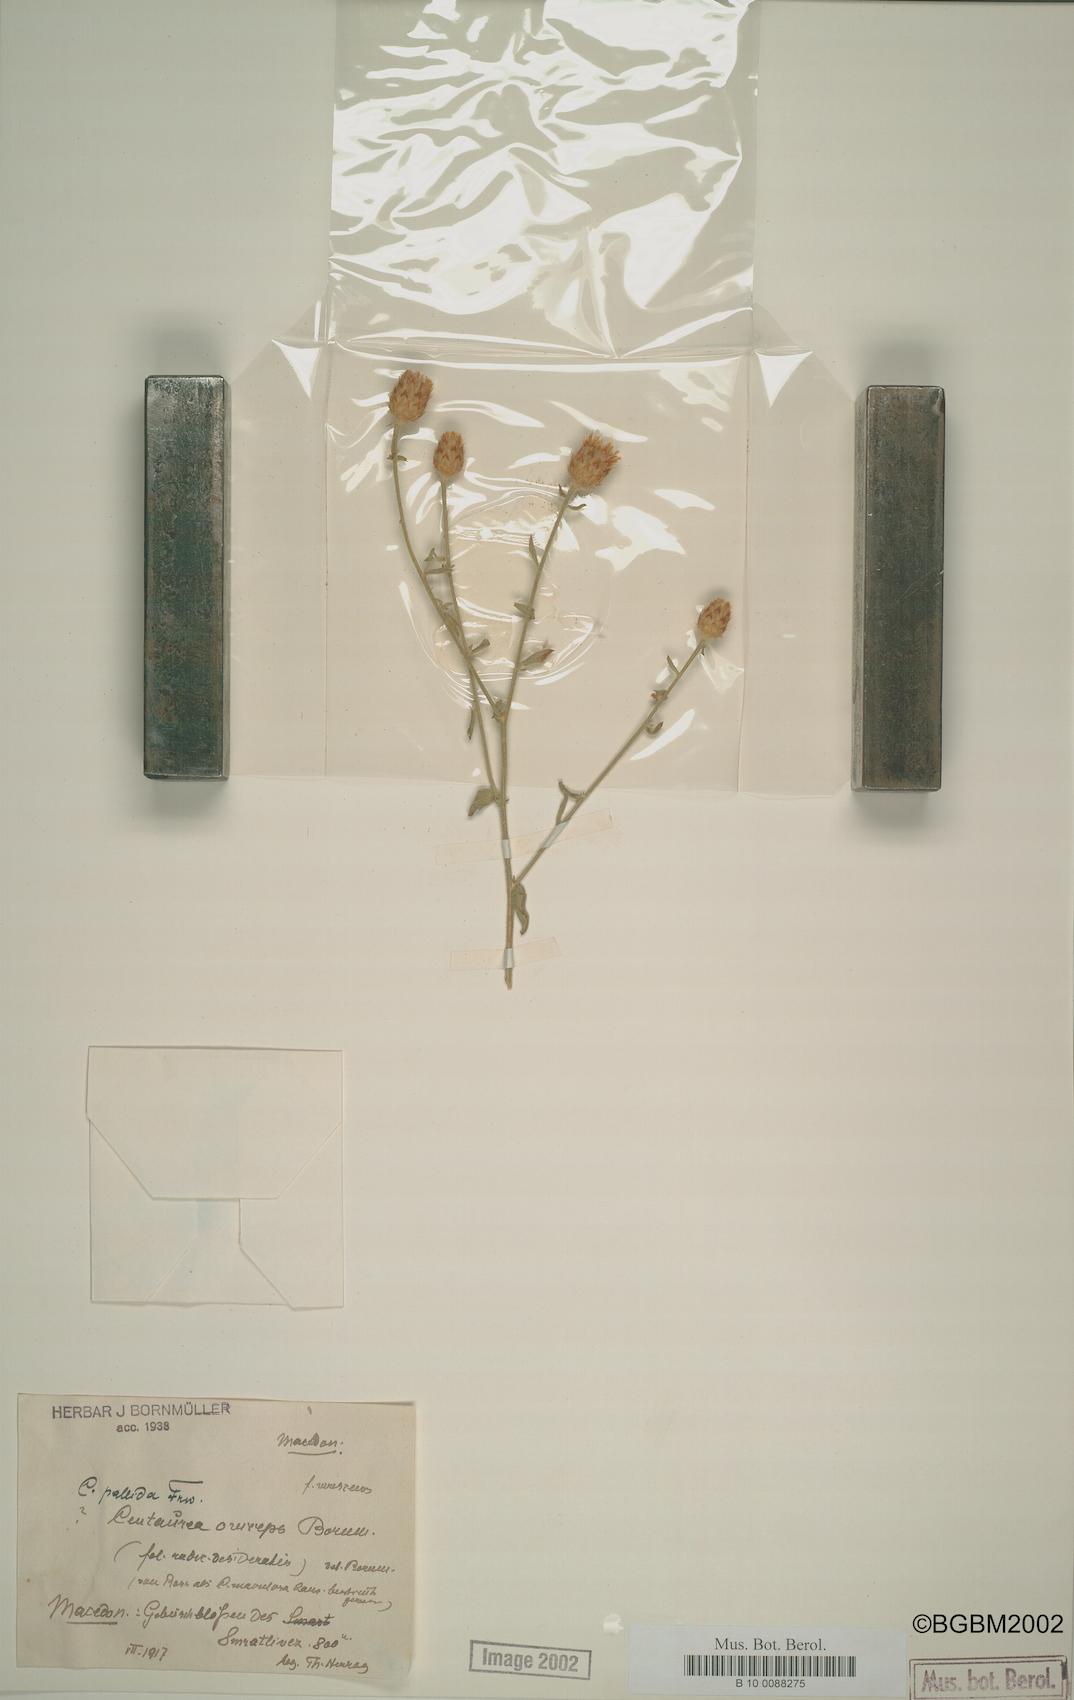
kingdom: Plantae
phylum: Tracheophyta
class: Magnoliopsida
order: Asterales
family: Asteraceae
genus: Centaurea
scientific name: Centaurea cuneifolia
